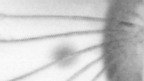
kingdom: Animalia
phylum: Arthropoda
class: Copepoda
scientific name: Copepoda
